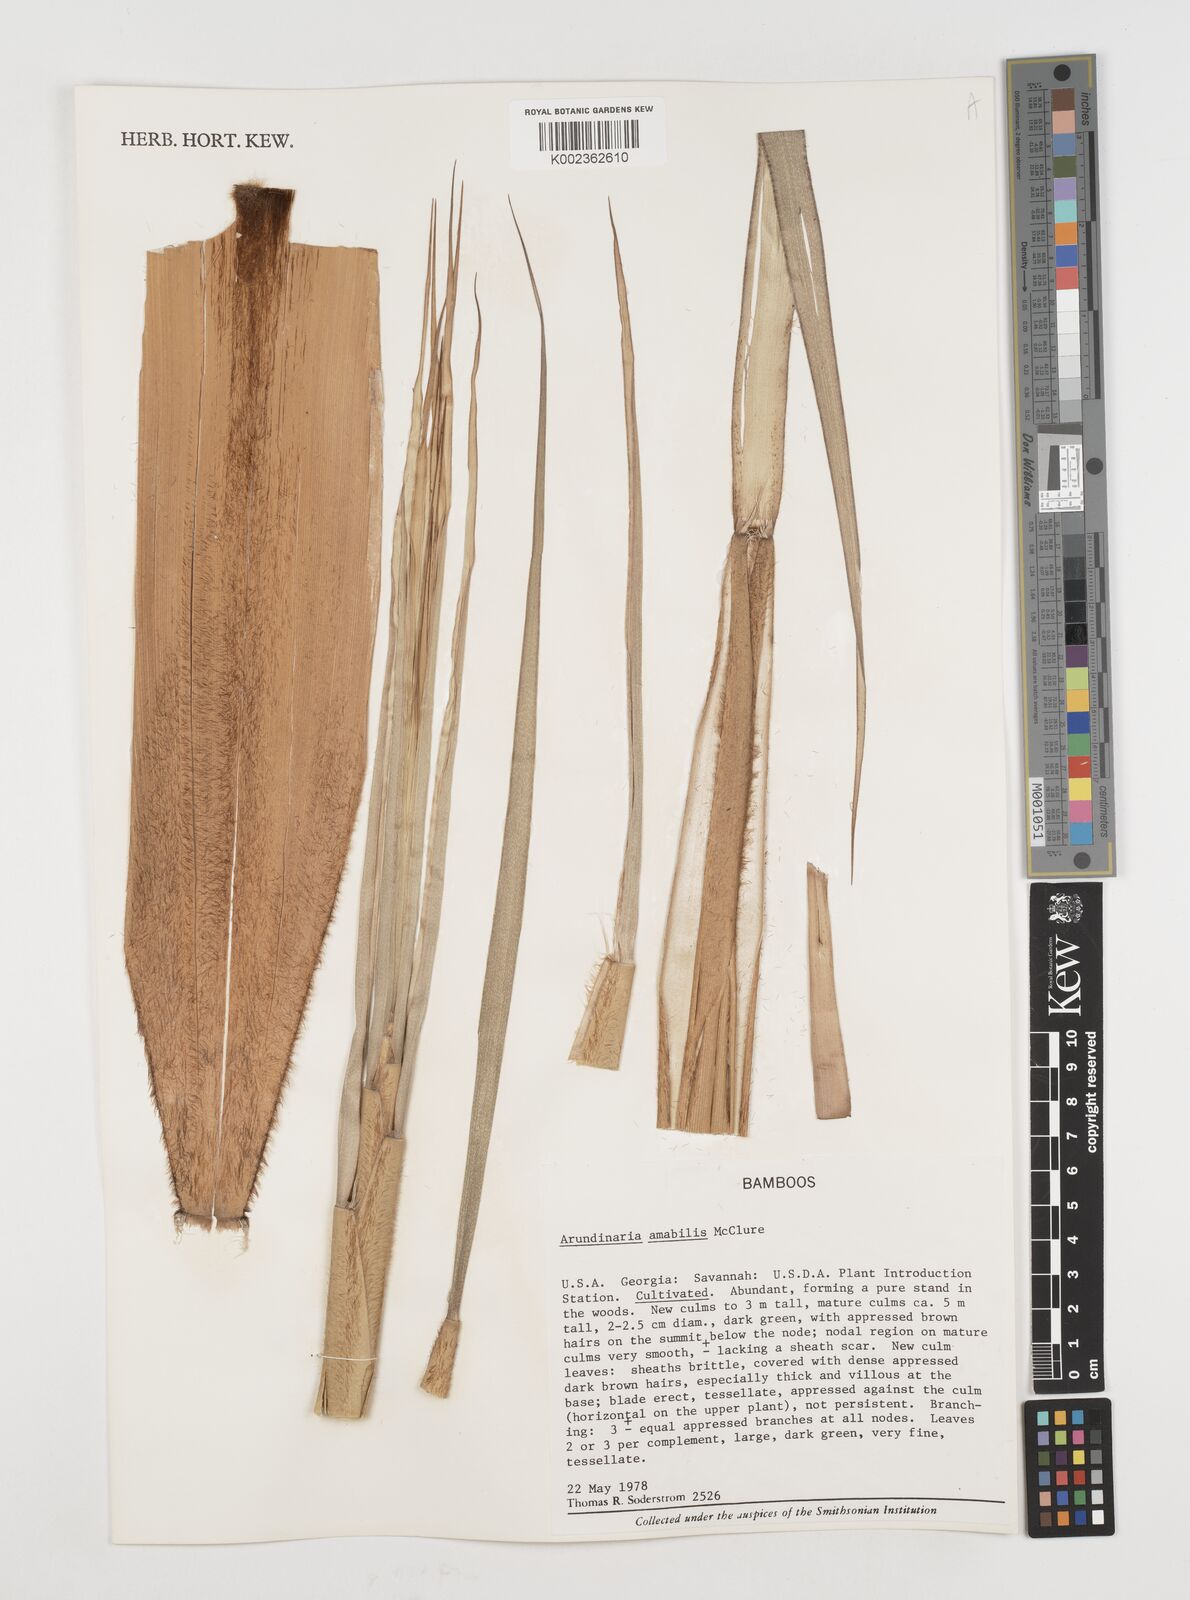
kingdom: Plantae
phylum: Tracheophyta
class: Liliopsida
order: Poales
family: Poaceae
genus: Pseudosasa
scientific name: Pseudosasa amabilis
